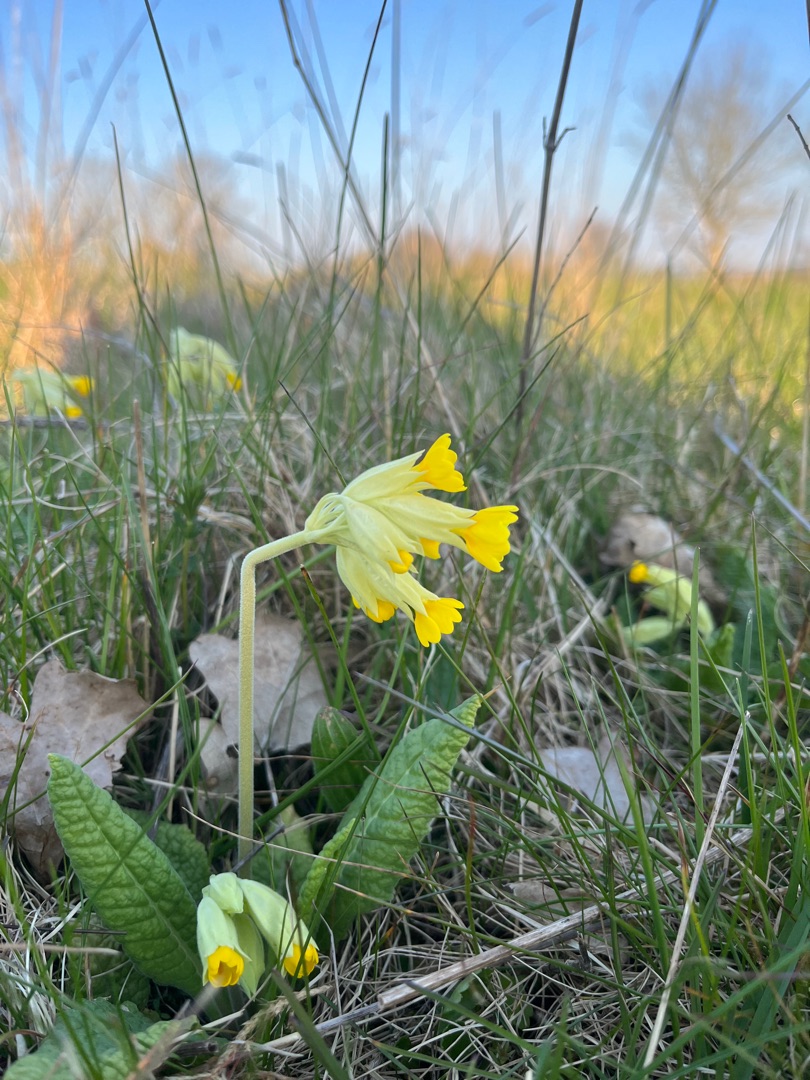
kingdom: Plantae
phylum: Tracheophyta
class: Magnoliopsida
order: Ericales
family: Primulaceae
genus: Primula
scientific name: Primula veris
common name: Hulkravet kodriver
